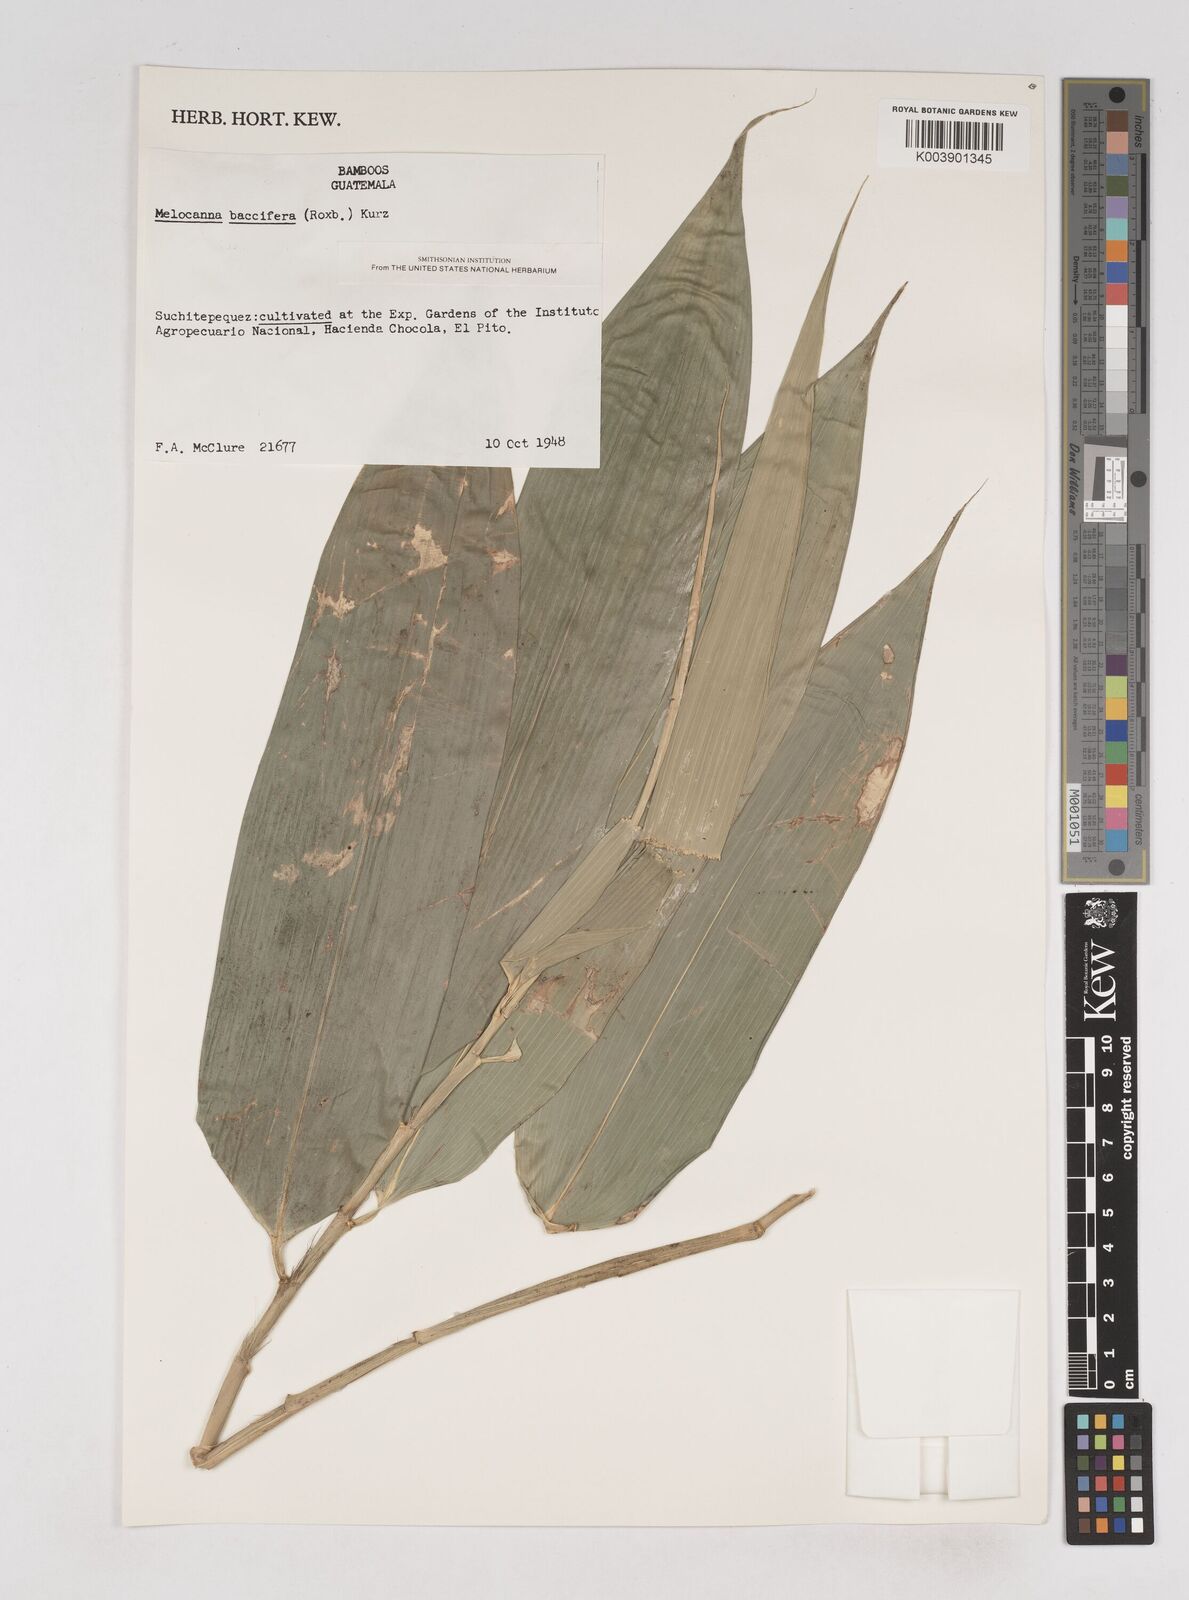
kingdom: Plantae
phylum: Tracheophyta
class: Liliopsida
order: Poales
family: Poaceae
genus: Melocanna
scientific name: Melocanna
